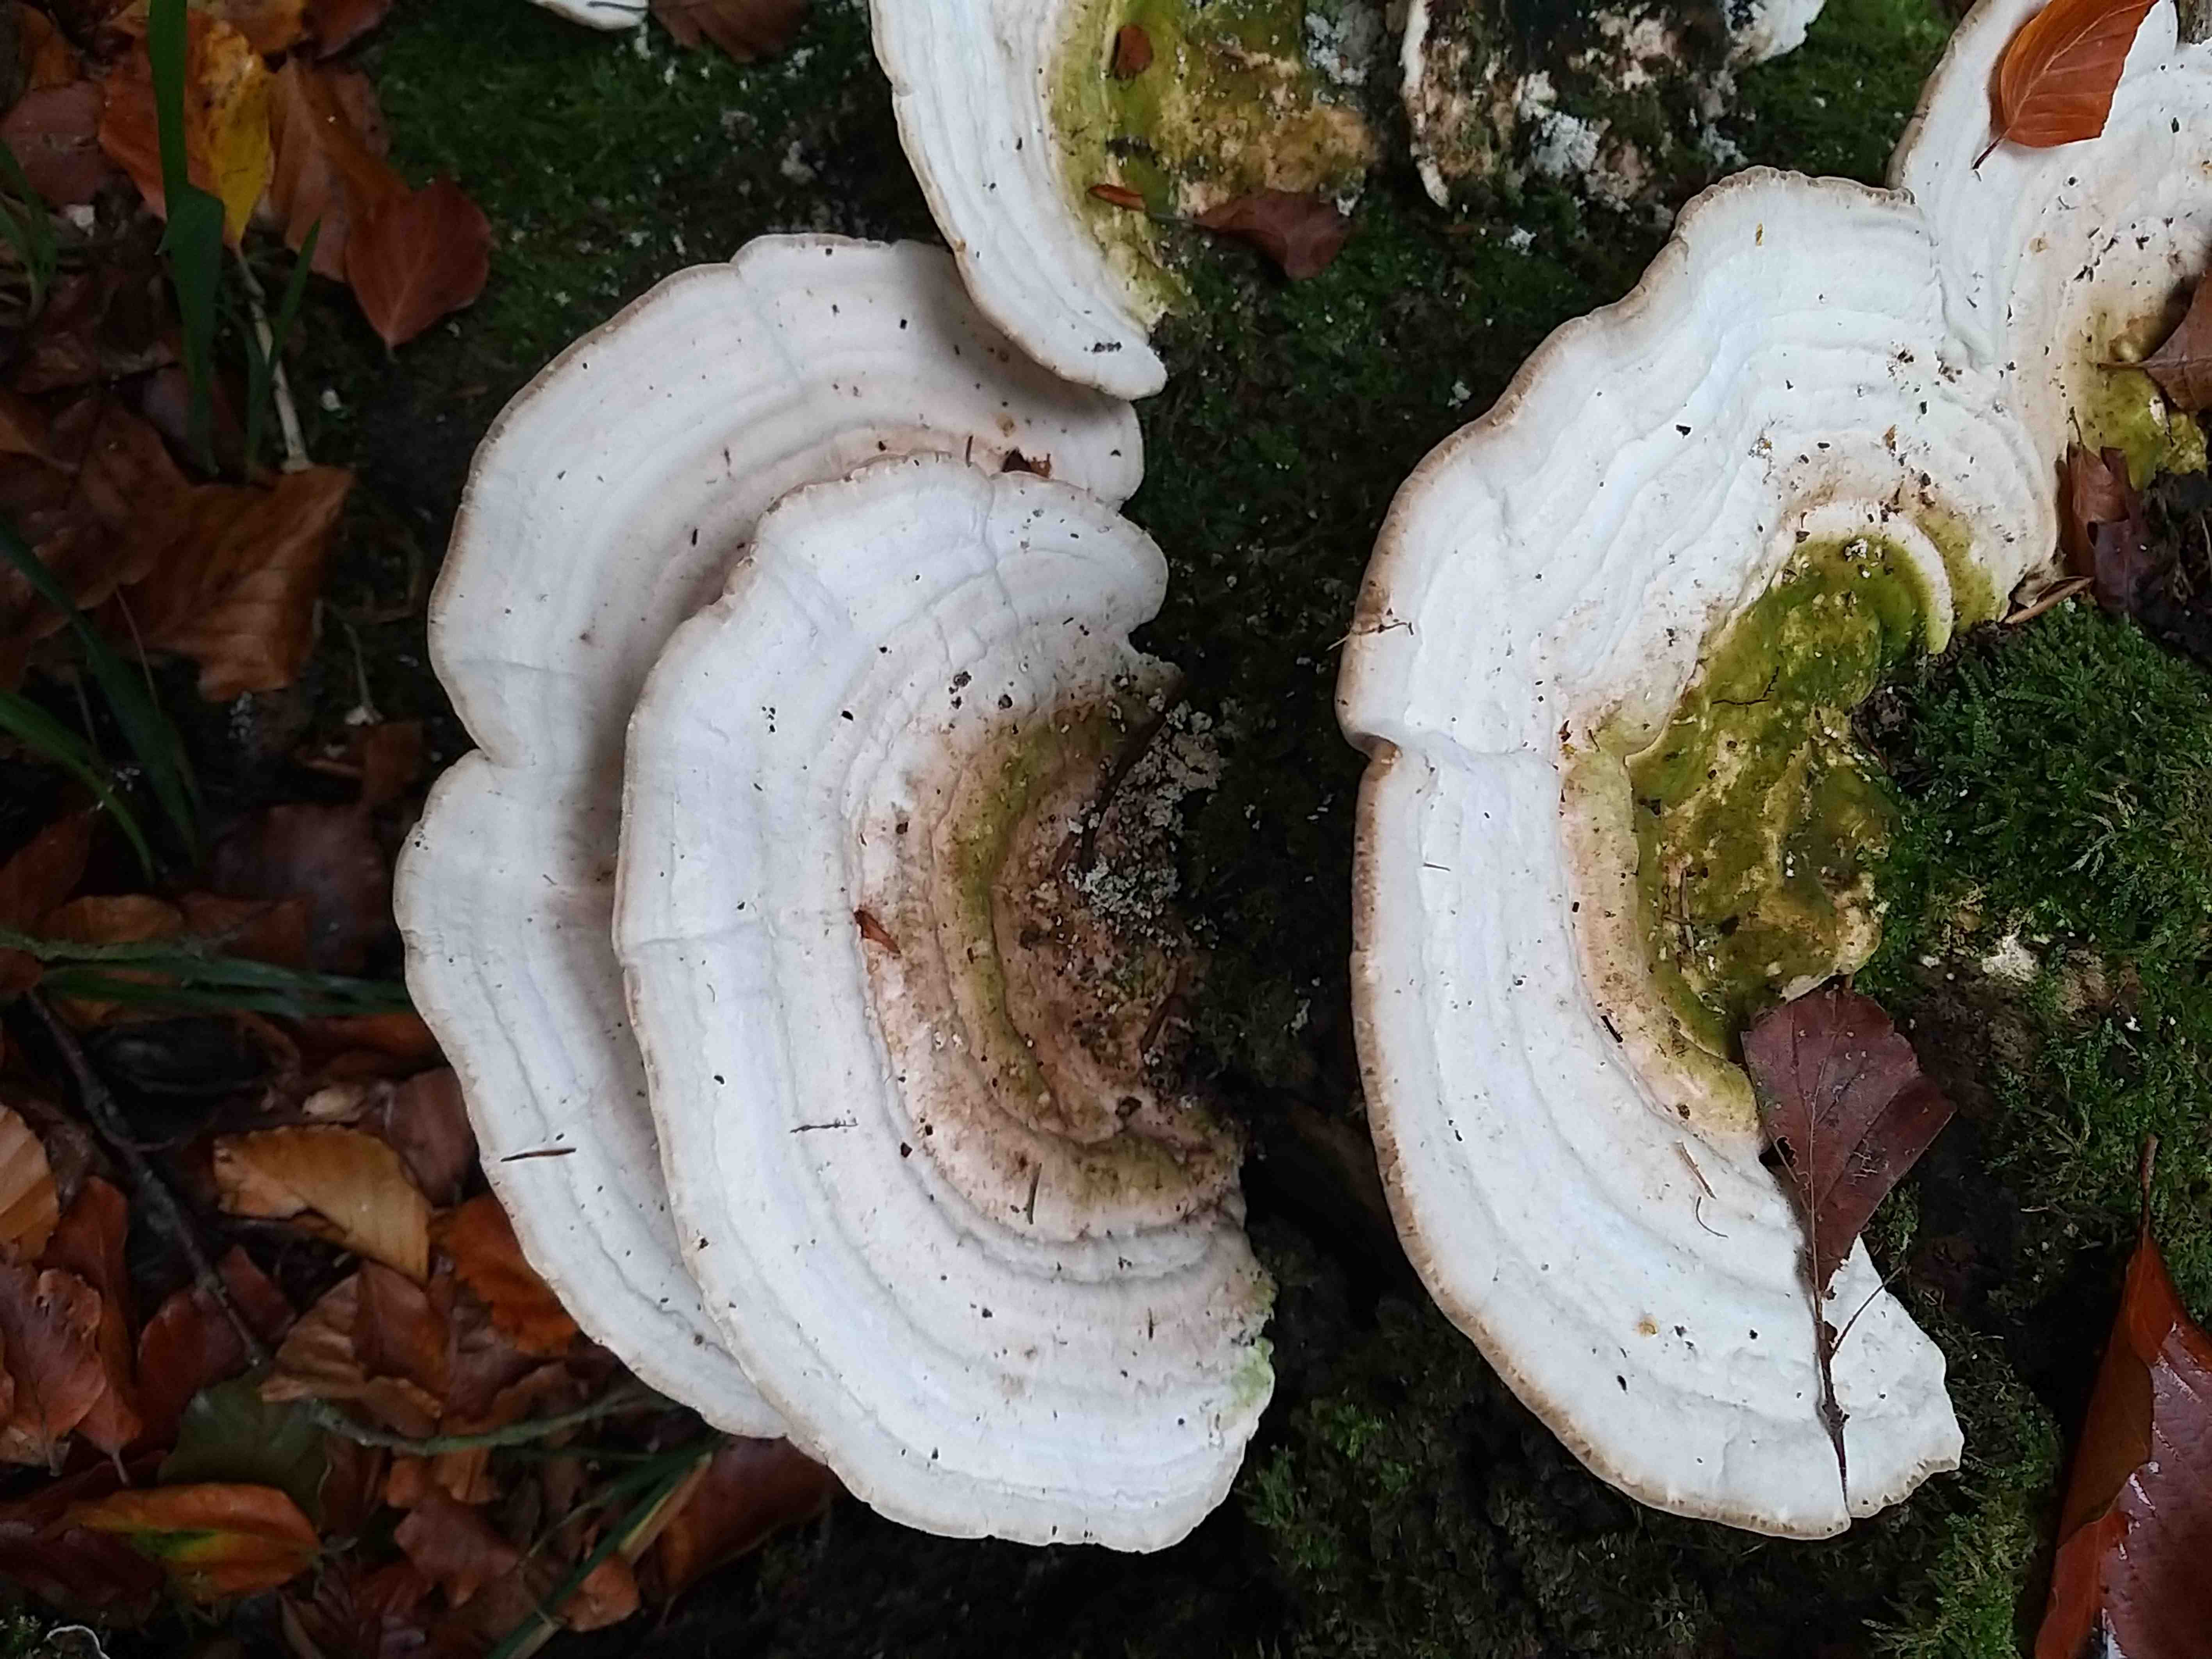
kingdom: Fungi
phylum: Basidiomycota
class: Agaricomycetes
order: Polyporales
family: Polyporaceae
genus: Trametes
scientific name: Trametes gibbosa
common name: puklet læderporesvamp
